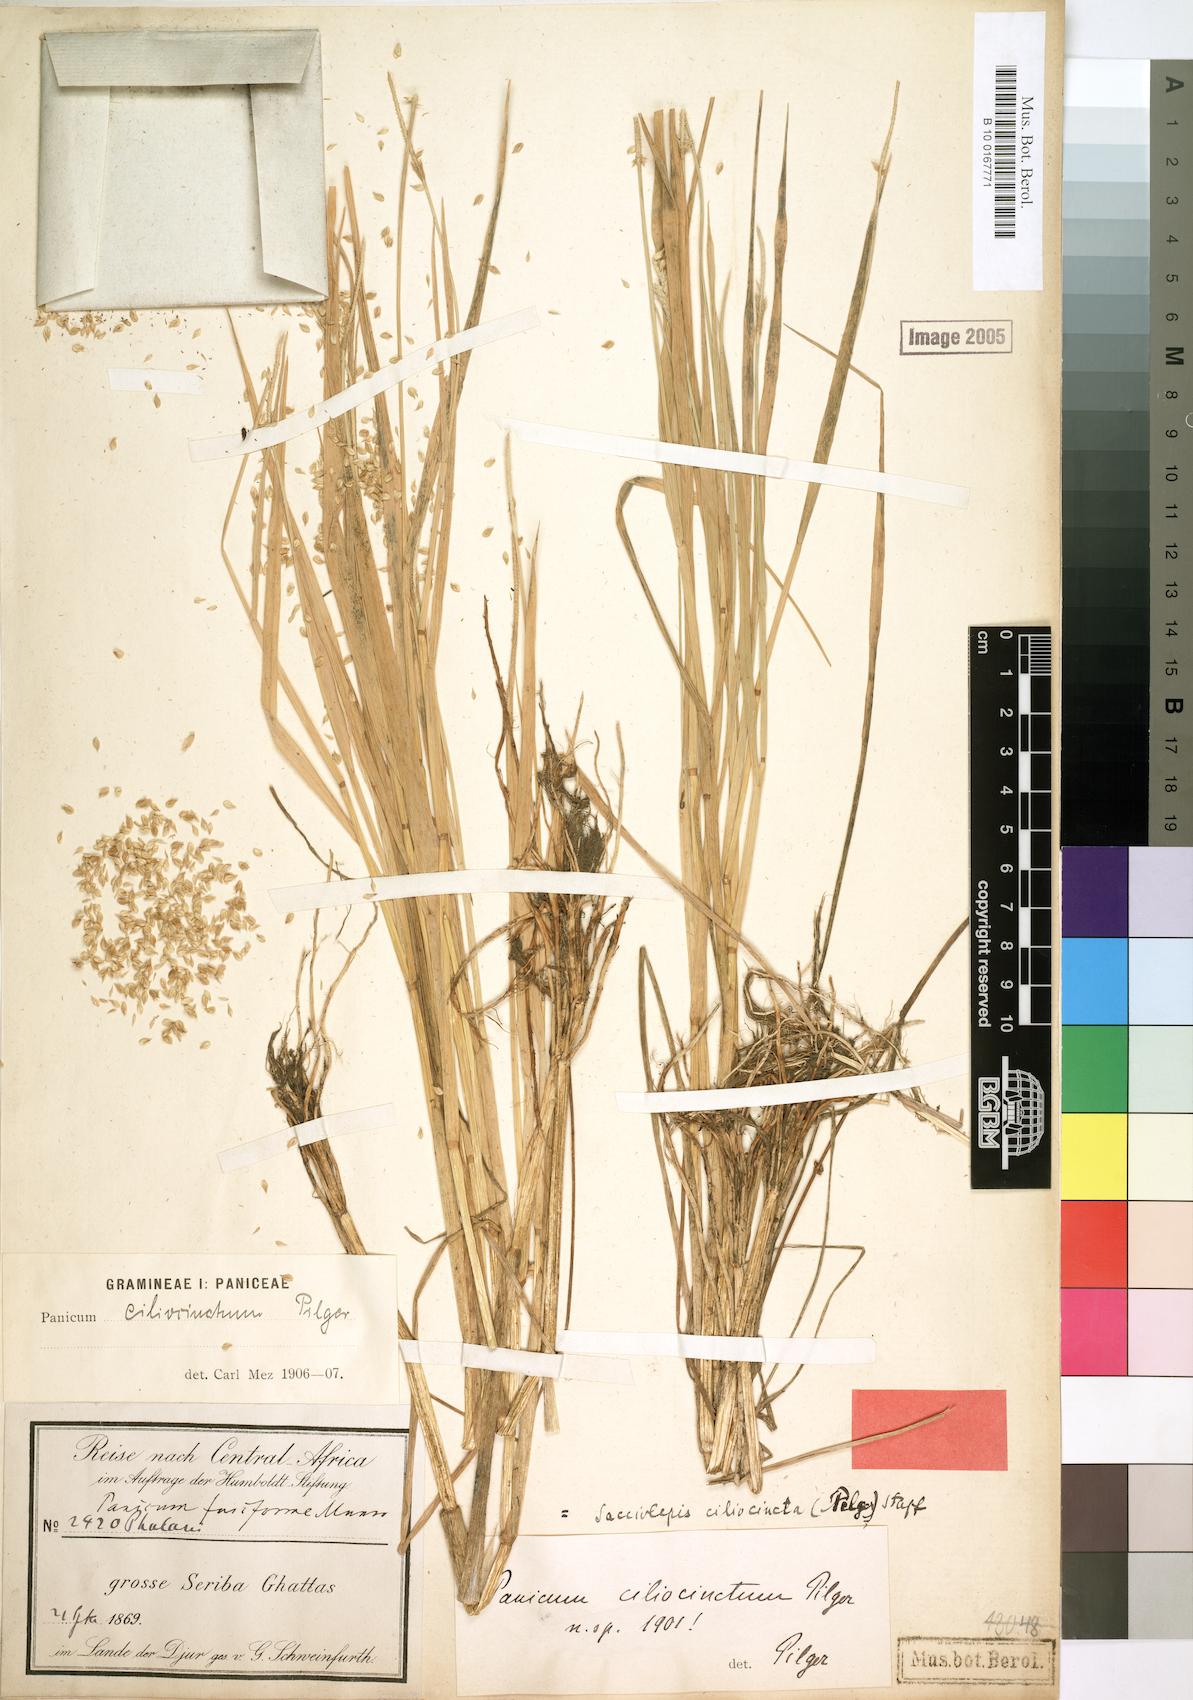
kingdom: Plantae
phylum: Tracheophyta
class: Liliopsida
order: Poales
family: Poaceae
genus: Sacciolepis
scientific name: Sacciolepis ciliocincta
